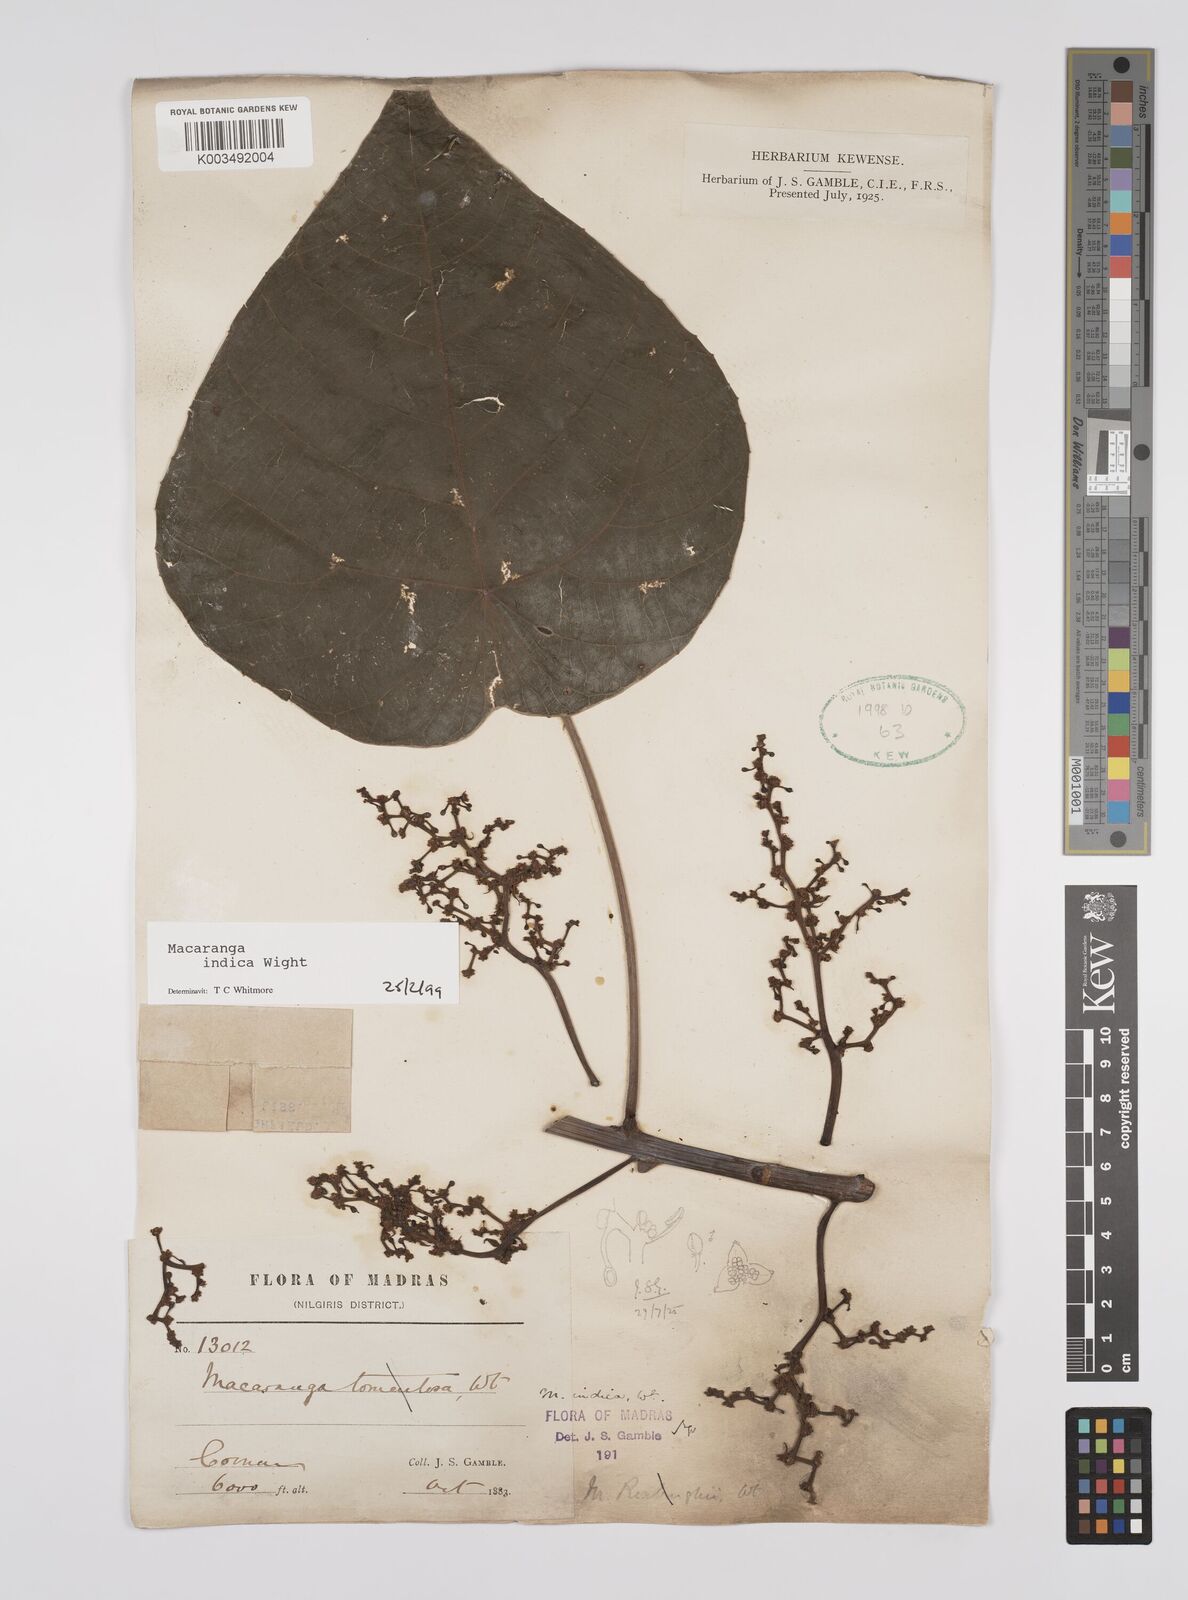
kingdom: Plantae
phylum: Tracheophyta
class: Magnoliopsida
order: Malpighiales
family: Euphorbiaceae
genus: Macaranga
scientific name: Macaranga indica
